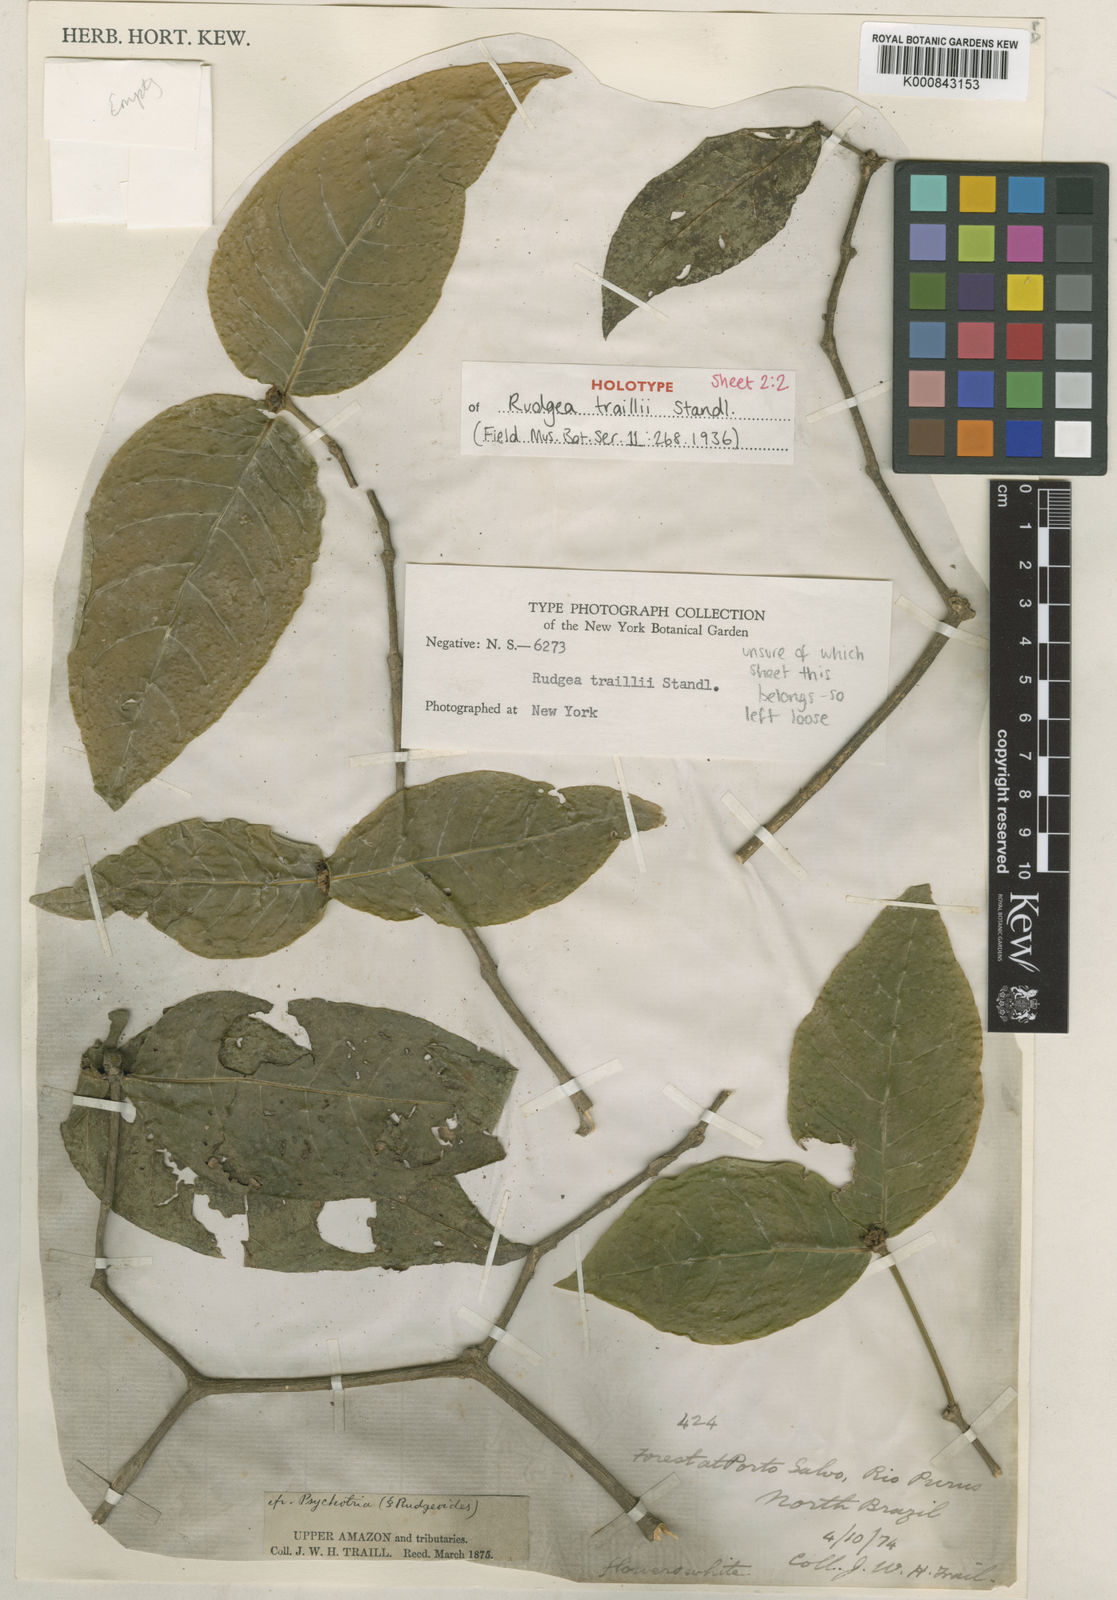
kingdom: Plantae
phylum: Tracheophyta
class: Magnoliopsida
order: Gentianales
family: Rubiaceae
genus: Rudgea
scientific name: Rudgea
